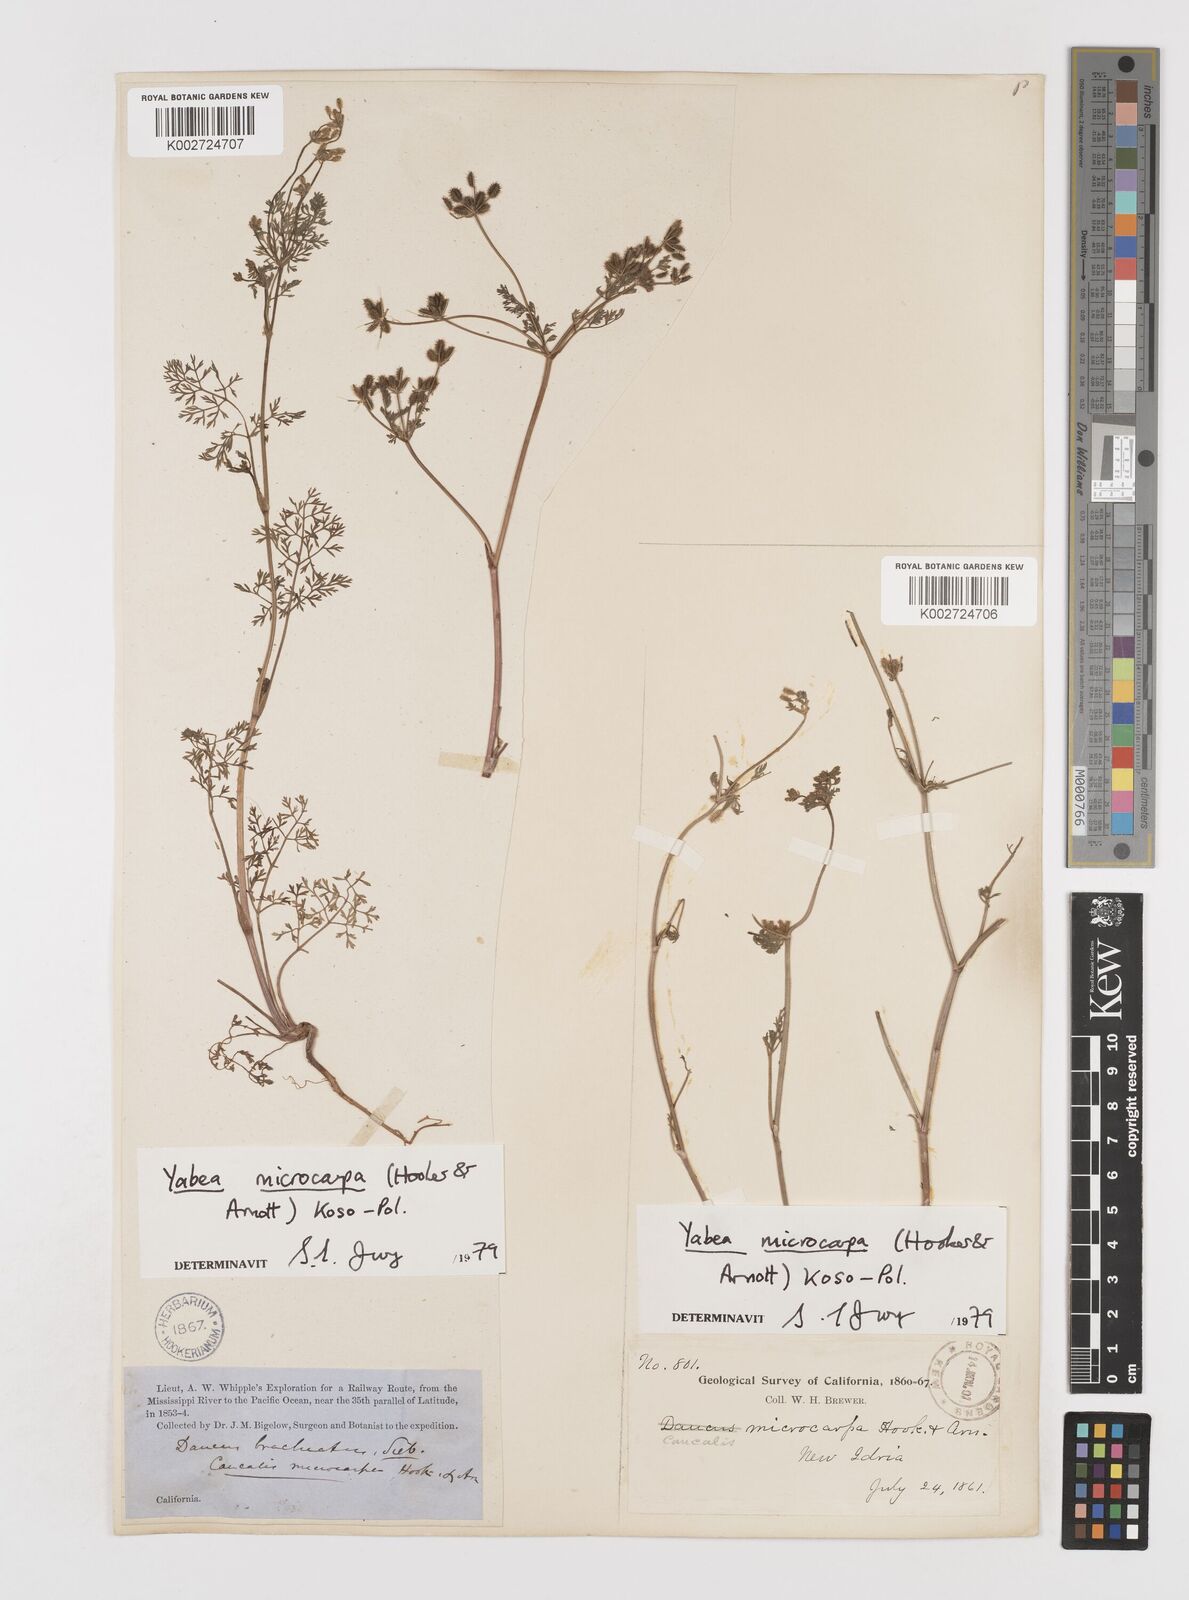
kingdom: Plantae
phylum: Tracheophyta
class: Magnoliopsida
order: Apiales
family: Apiaceae
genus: Yabea
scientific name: Yabea microcarpa
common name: False carrot
